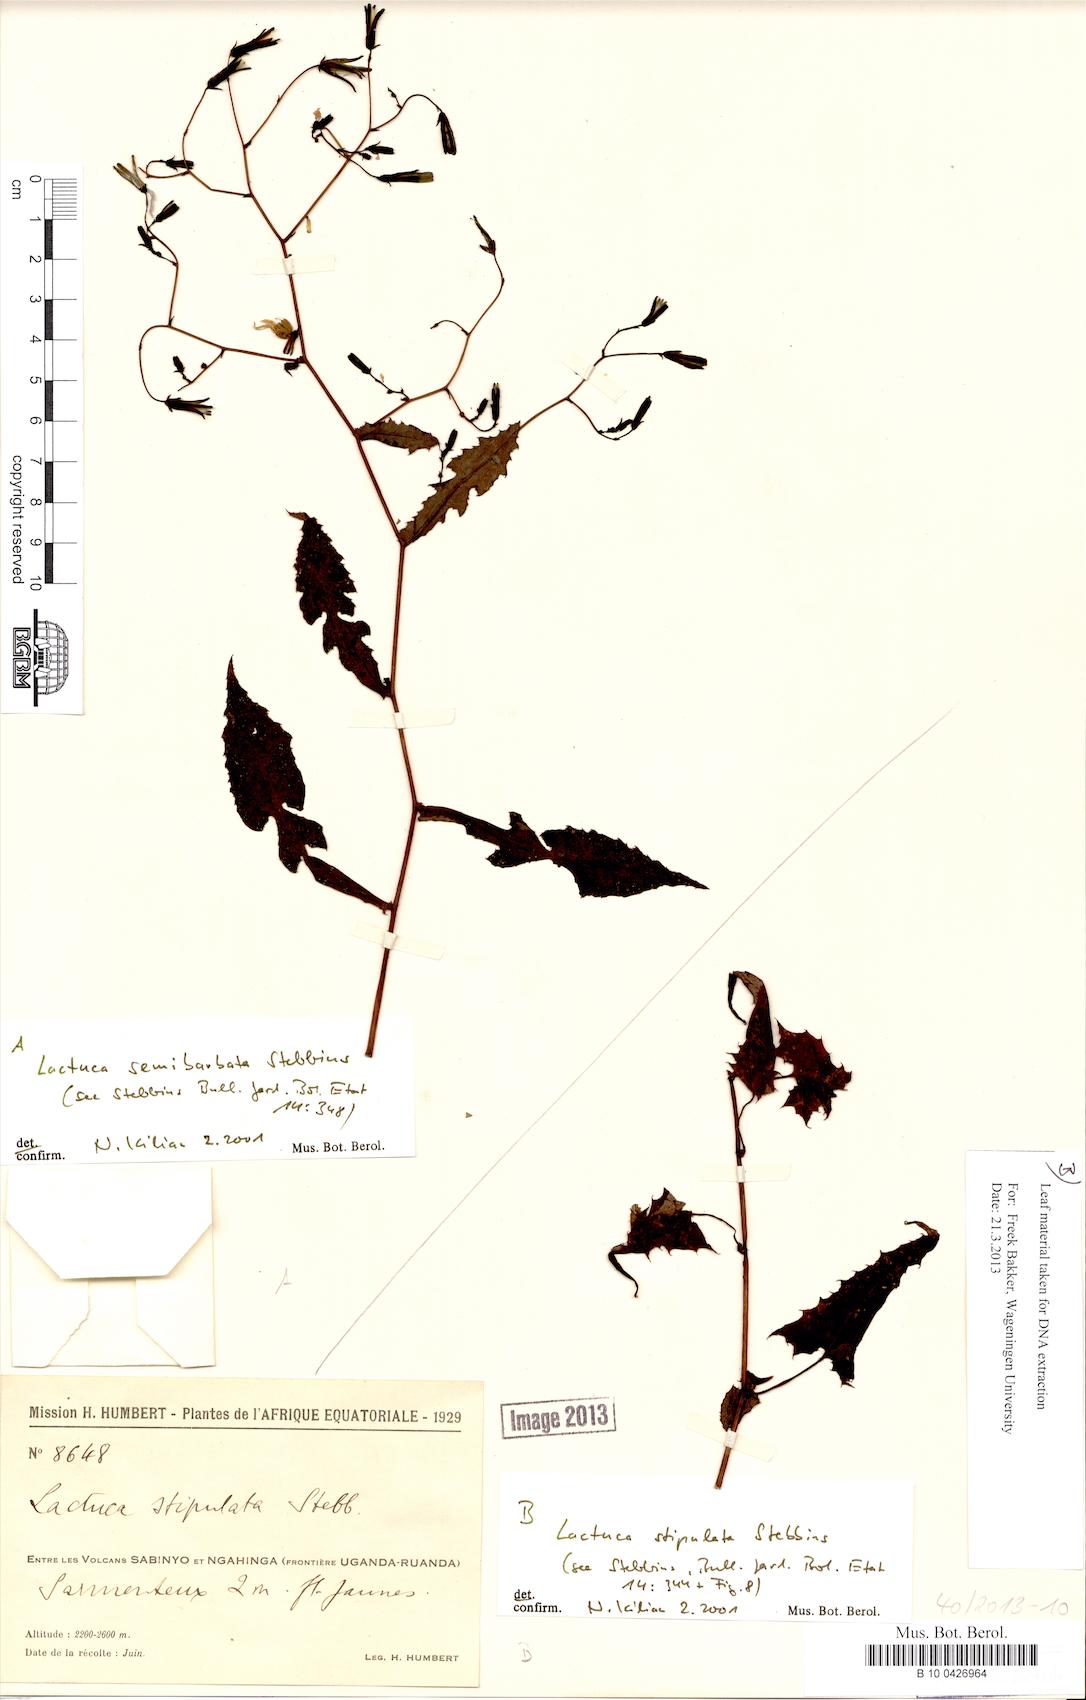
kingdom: Plantae
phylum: Tracheophyta
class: Magnoliopsida
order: Asterales
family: Asteraceae
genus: Lactuca
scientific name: Lactuca stipulata
